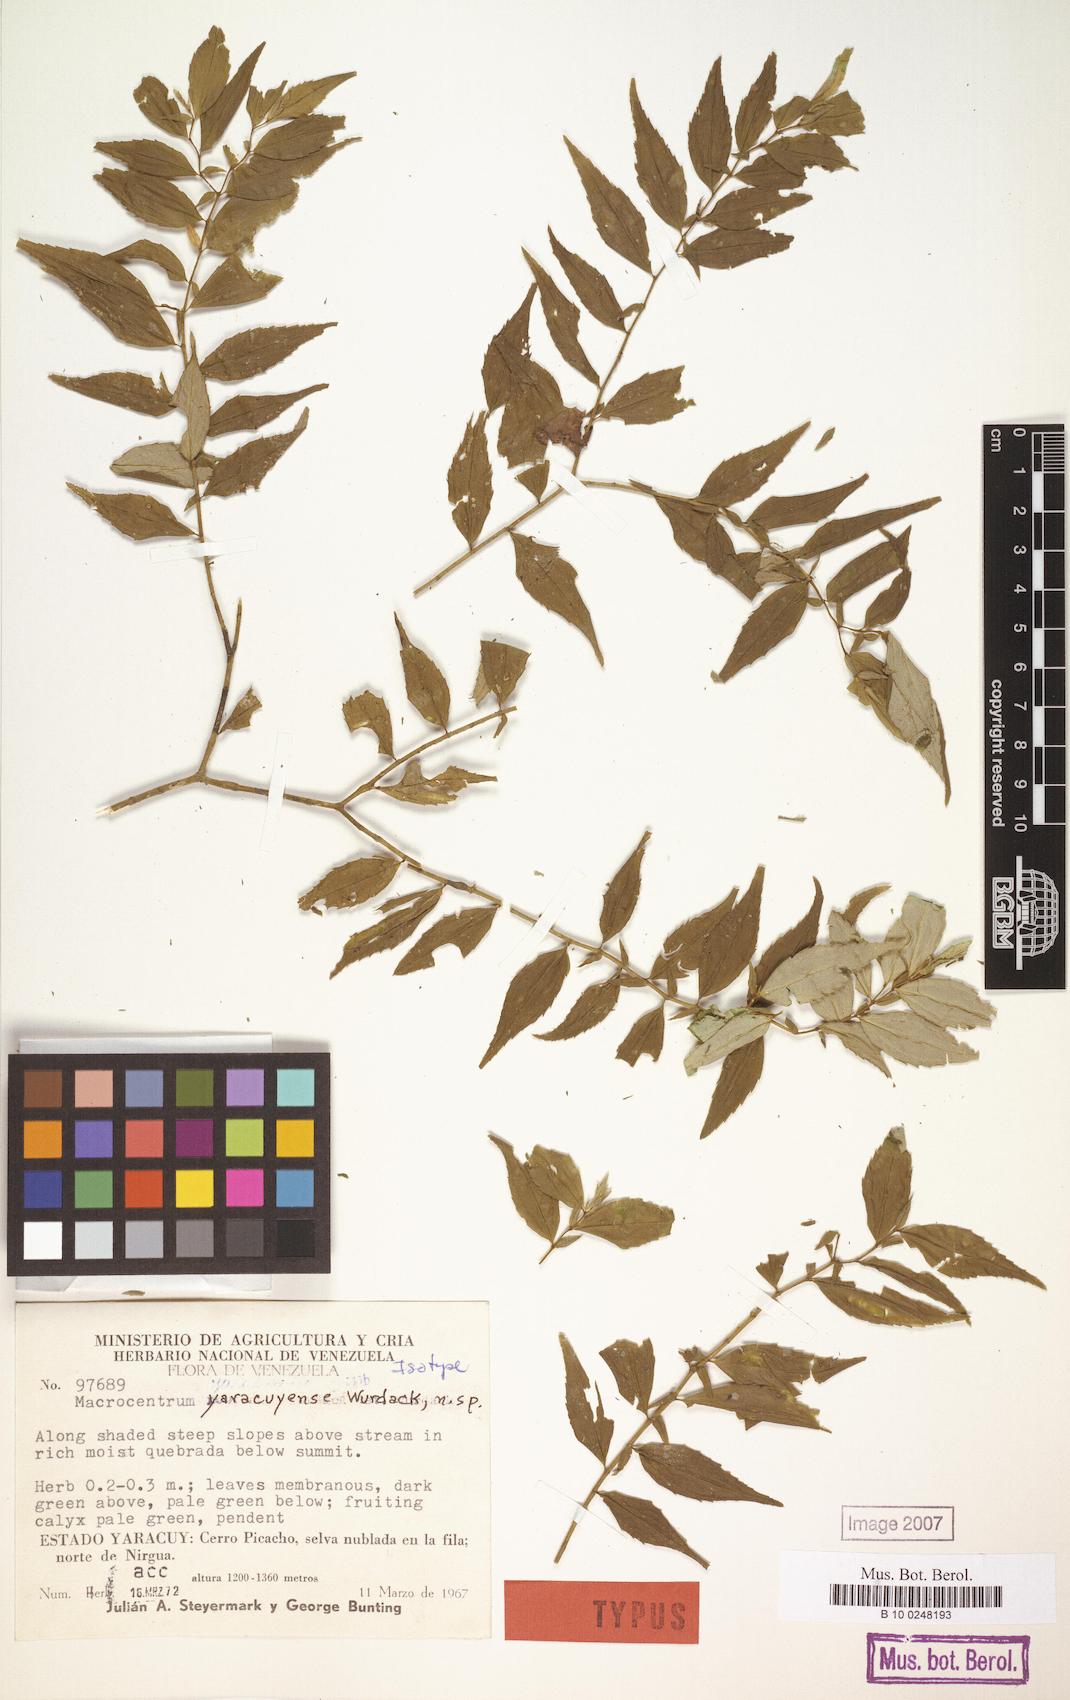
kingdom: Plantae
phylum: Tracheophyta
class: Magnoliopsida
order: Myrtales
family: Melastomataceae
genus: Macrocentrum
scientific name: Macrocentrum yaracuyense
